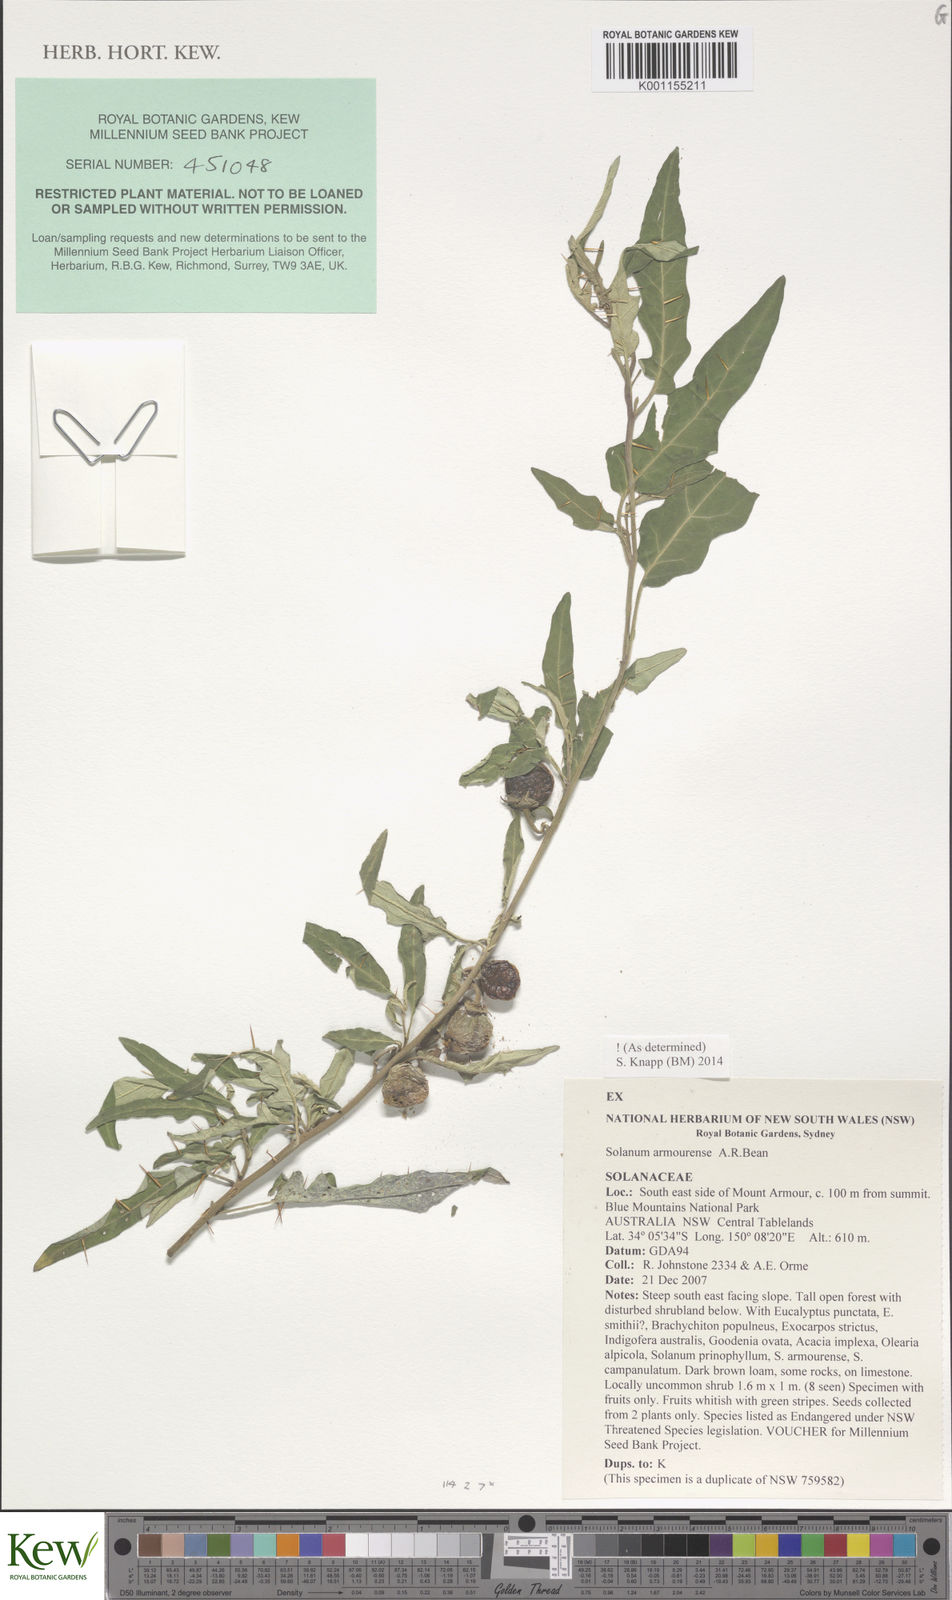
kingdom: Plantae
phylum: Tracheophyta
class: Magnoliopsida
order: Solanales
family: Solanaceae
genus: Solanum
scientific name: Solanum armourense
